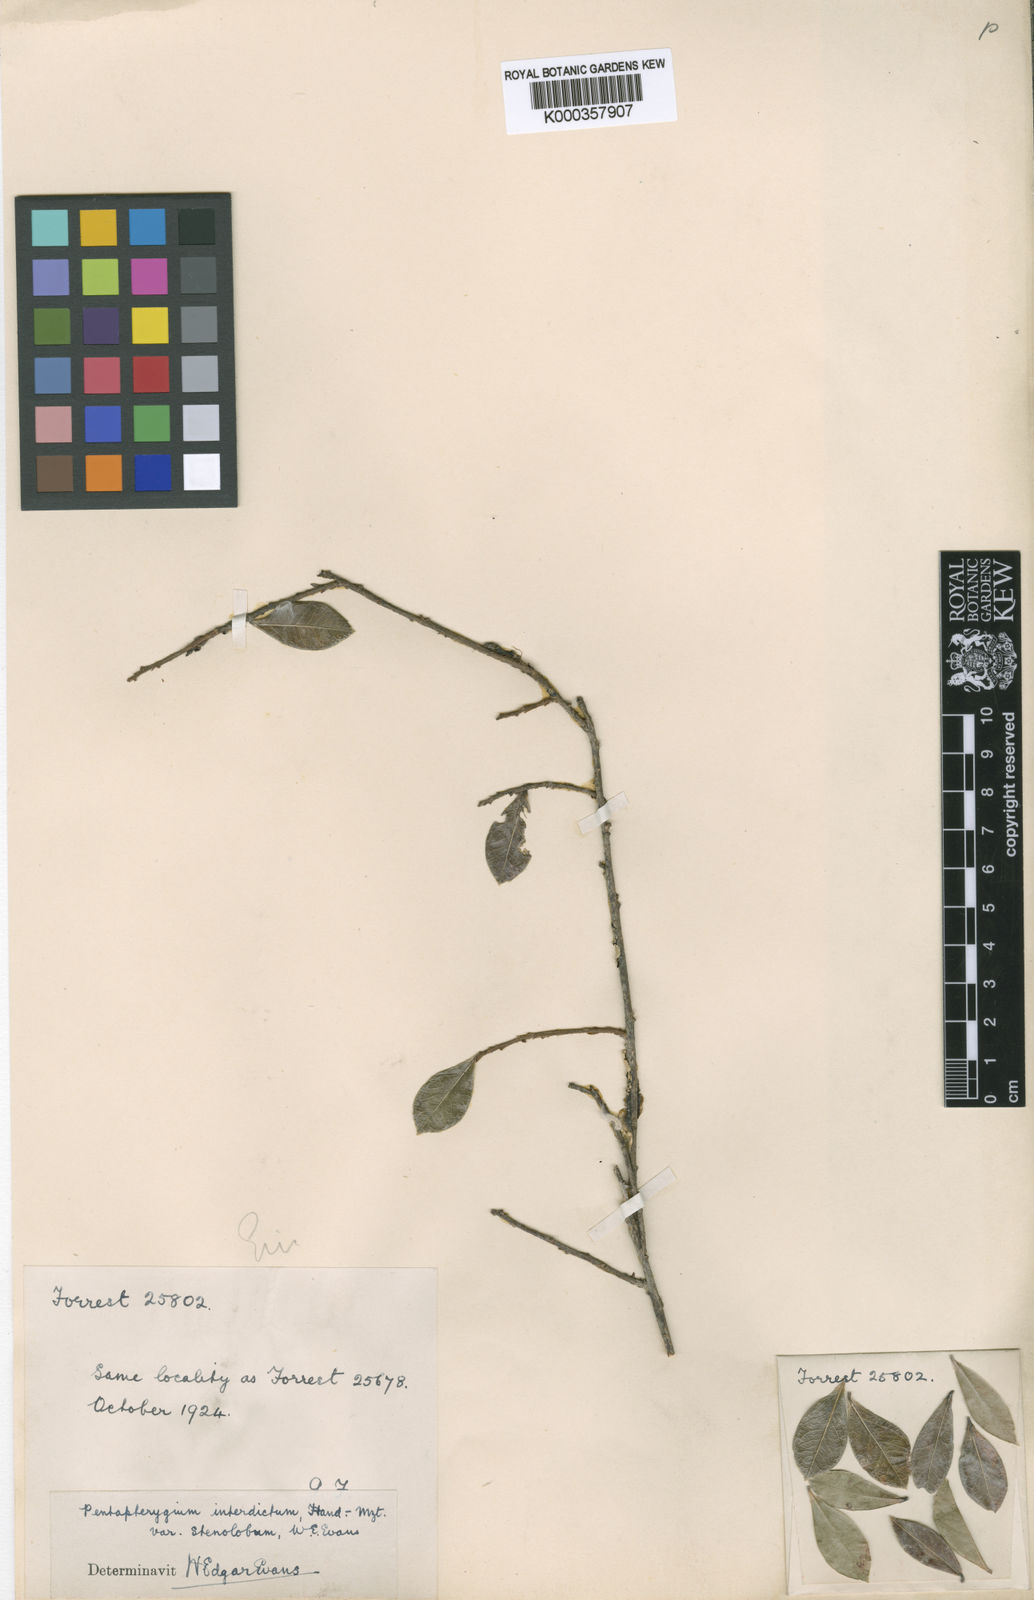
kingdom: Plantae
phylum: Tracheophyta
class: Magnoliopsida
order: Ericales
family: Ericaceae
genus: Agapetes
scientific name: Agapetes interdicta
